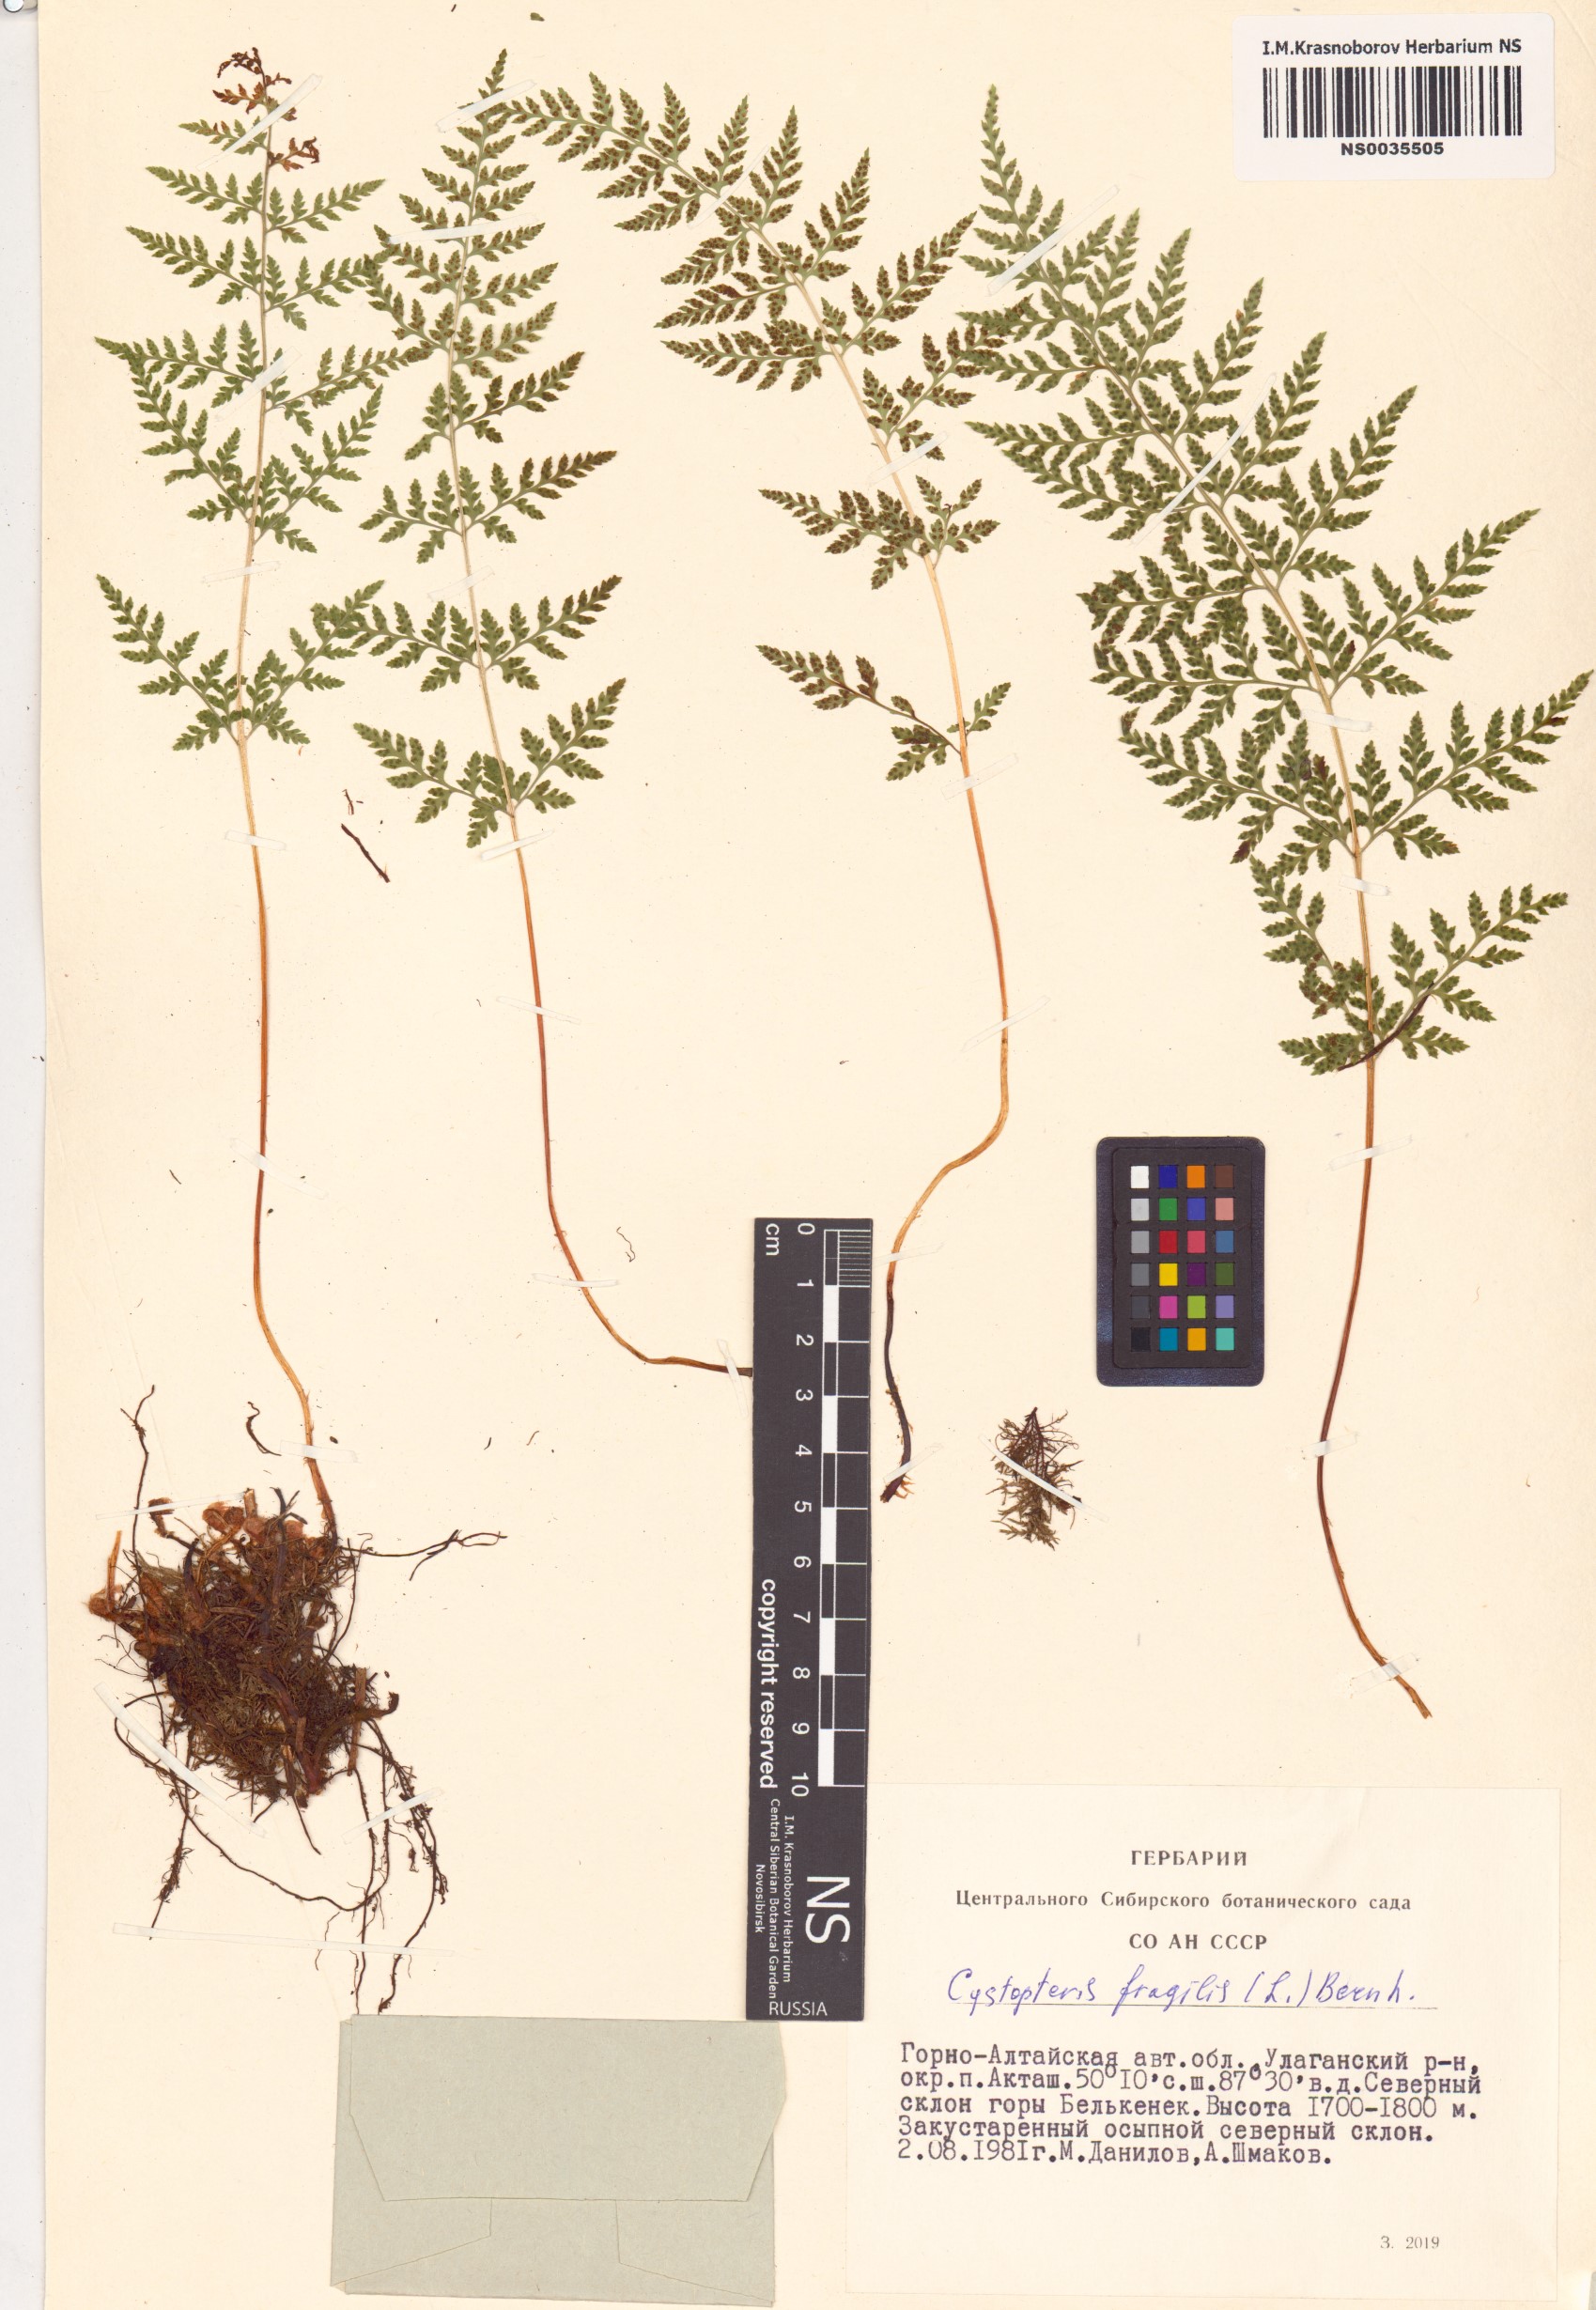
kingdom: Plantae
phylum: Tracheophyta
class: Polypodiopsida
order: Polypodiales
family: Cystopteridaceae
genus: Cystopteris
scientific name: Cystopteris fragilis
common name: Brittle bladder fern
